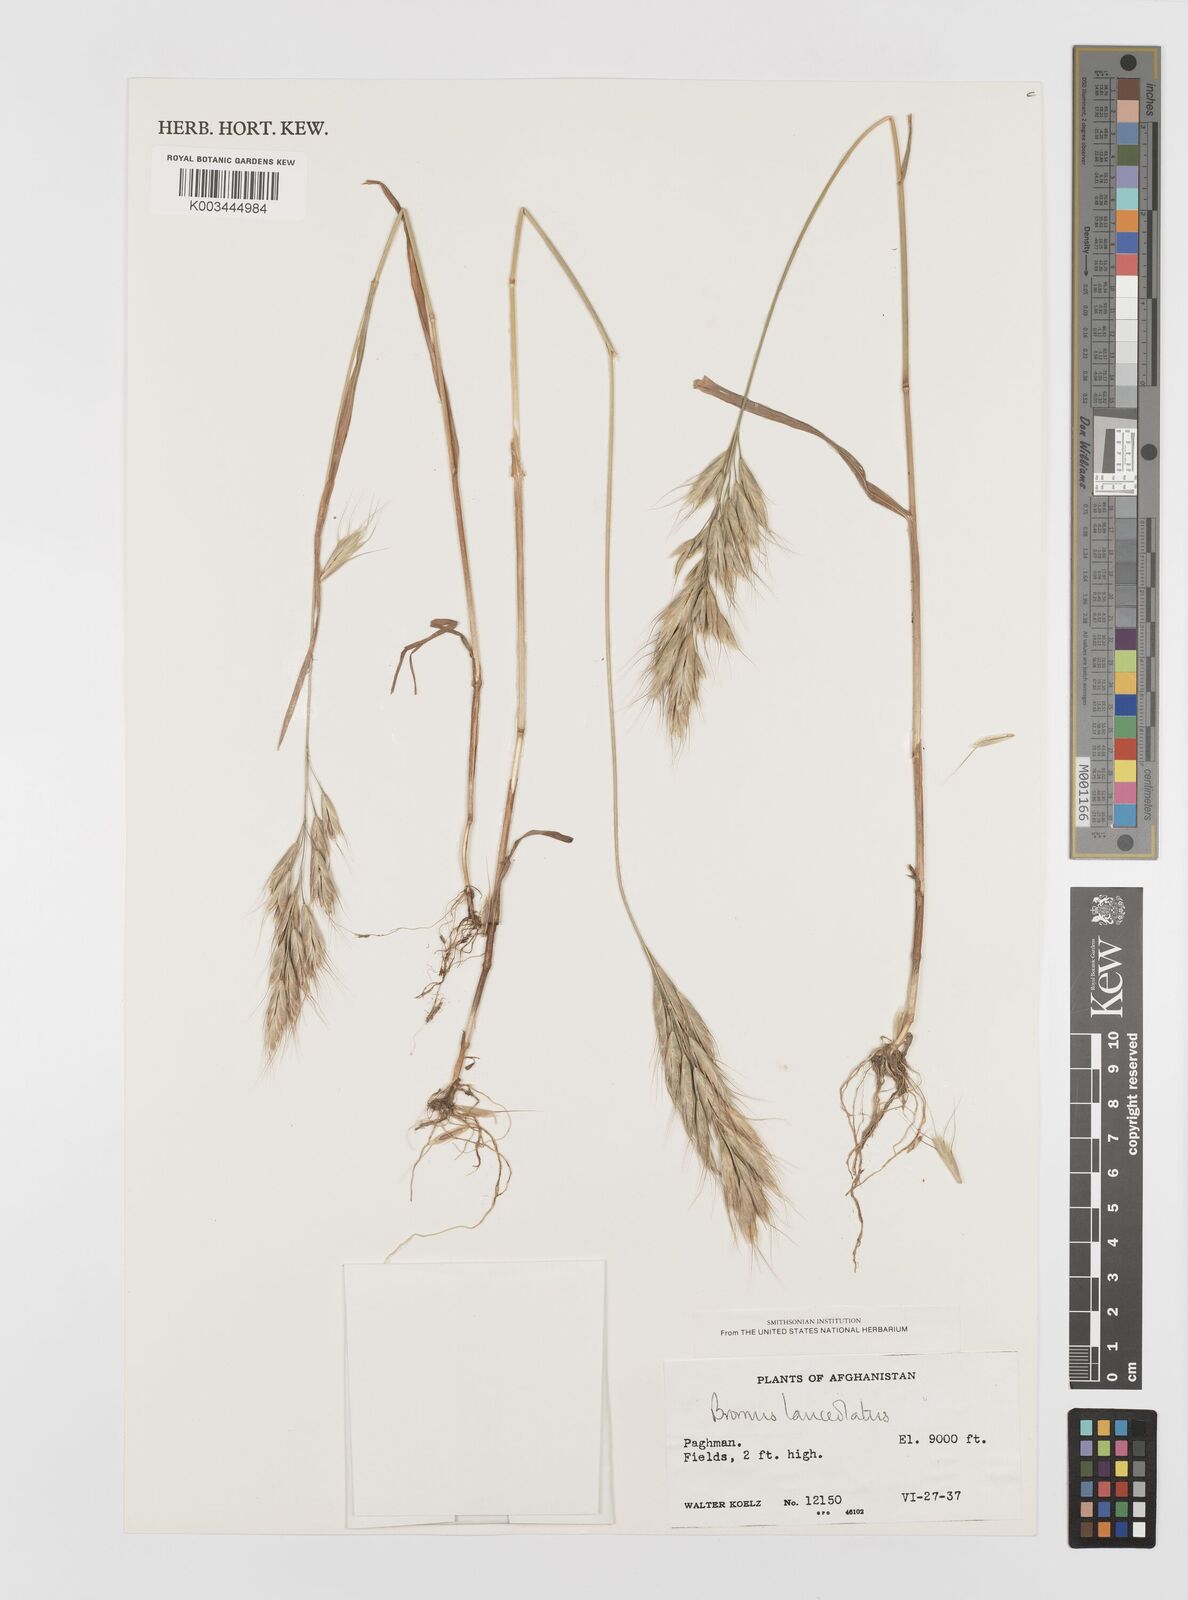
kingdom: Plantae
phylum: Tracheophyta
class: Liliopsida
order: Poales
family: Poaceae
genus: Bromus
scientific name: Bromus lanceolatus
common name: Mediterranean brome
